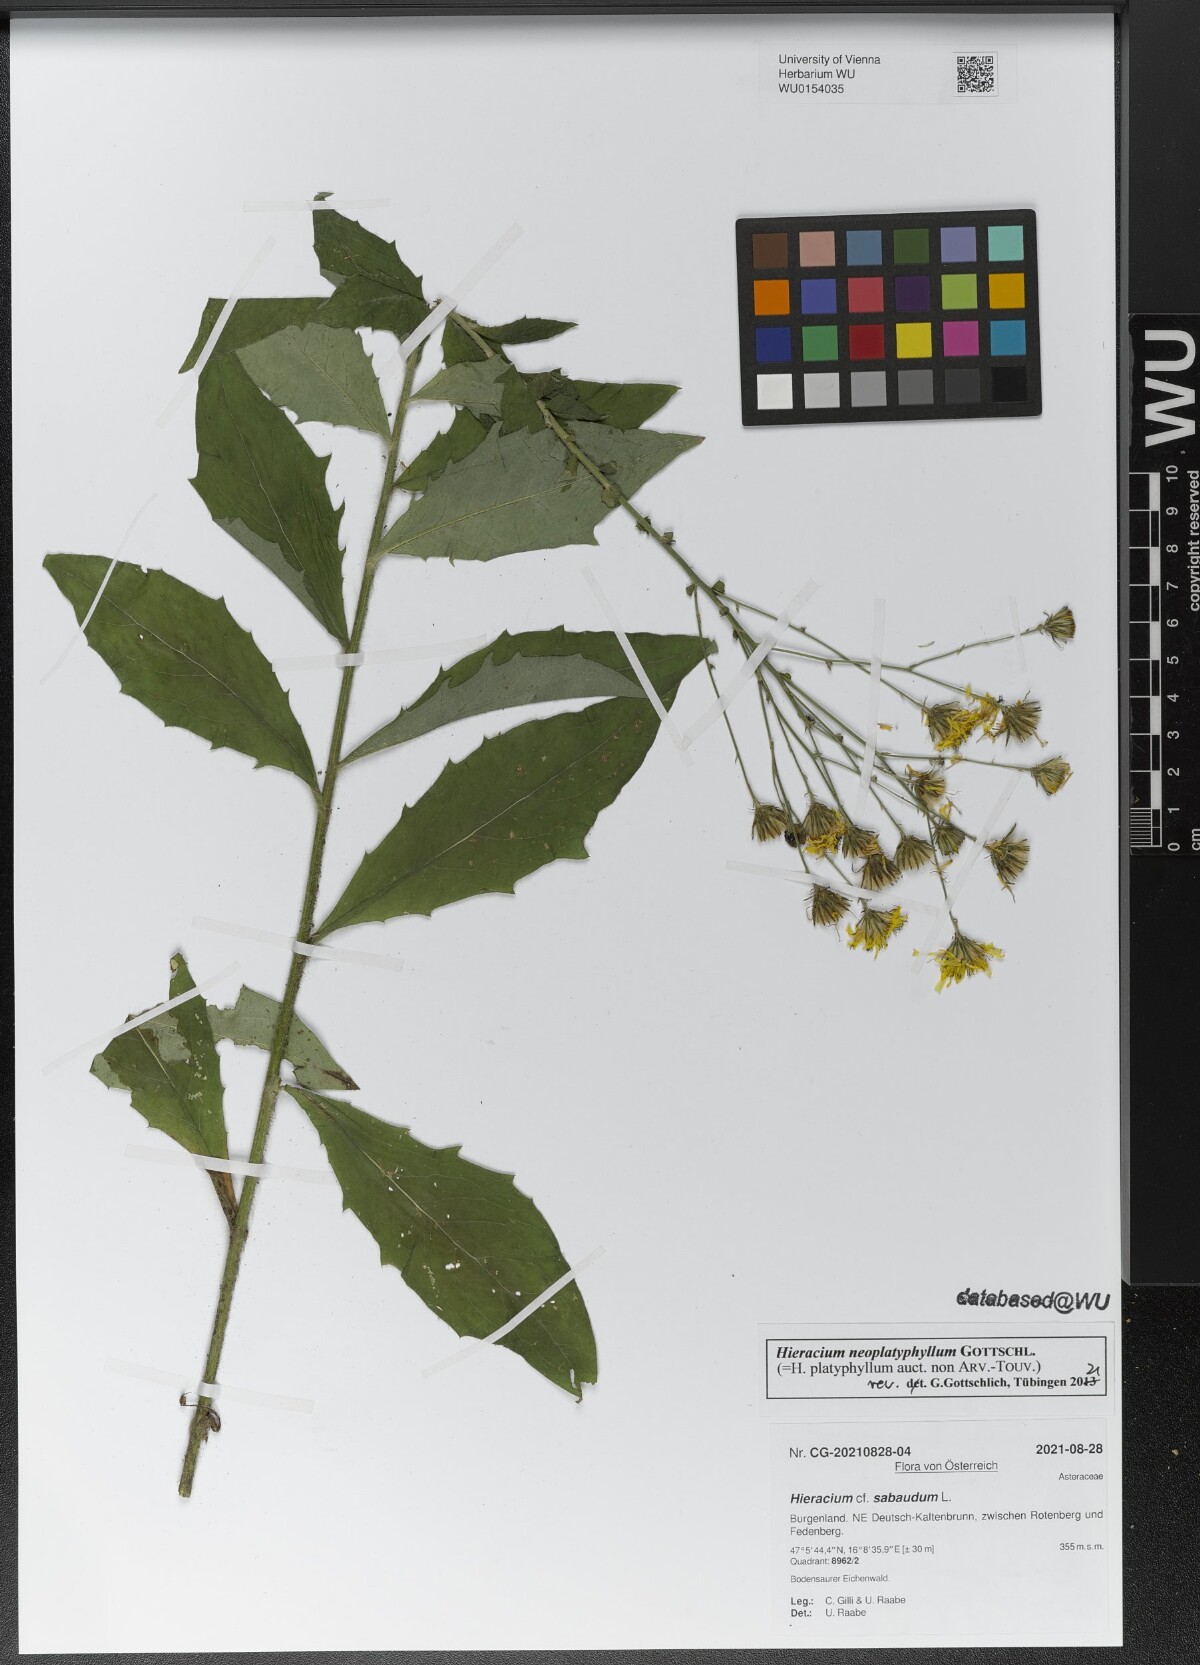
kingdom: Plantae
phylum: Tracheophyta
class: Magnoliopsida
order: Asterales
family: Asteraceae
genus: Hieracium
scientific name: Hieracium neoplatyphyllum
